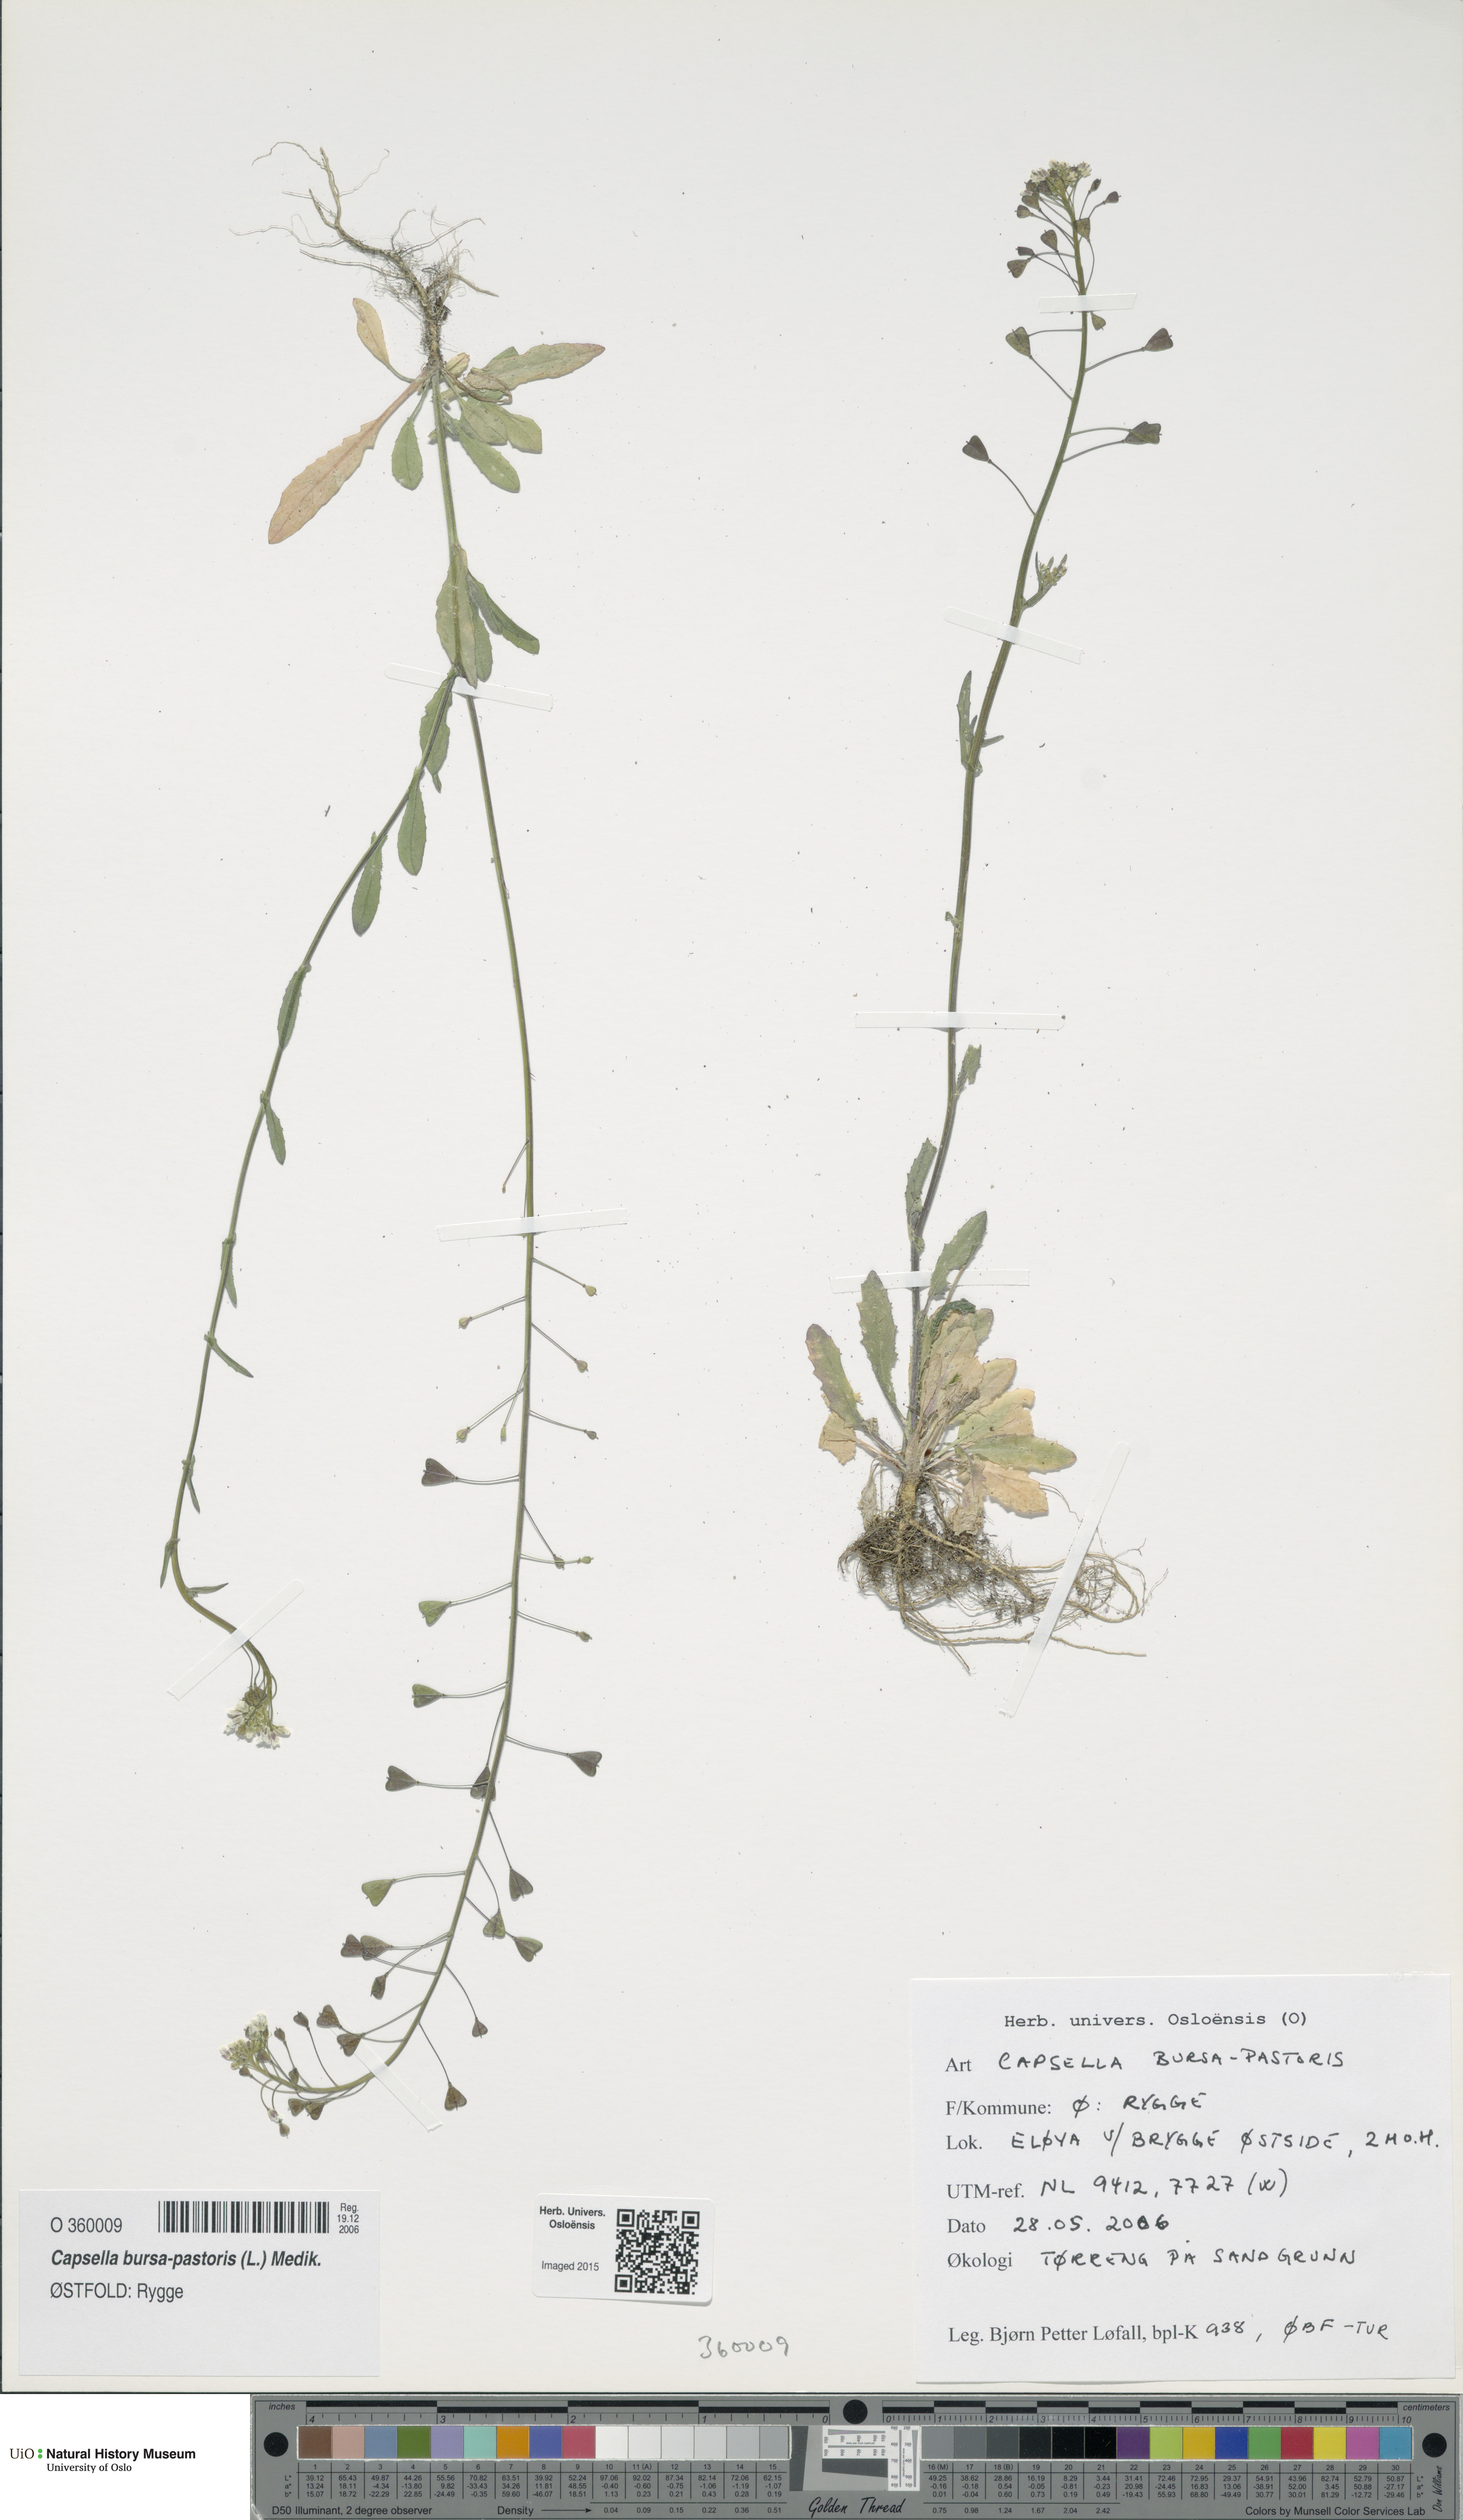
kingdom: Plantae
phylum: Tracheophyta
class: Magnoliopsida
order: Brassicales
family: Brassicaceae
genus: Capsella
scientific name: Capsella bursa-pastoris
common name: Shepherd's purse
